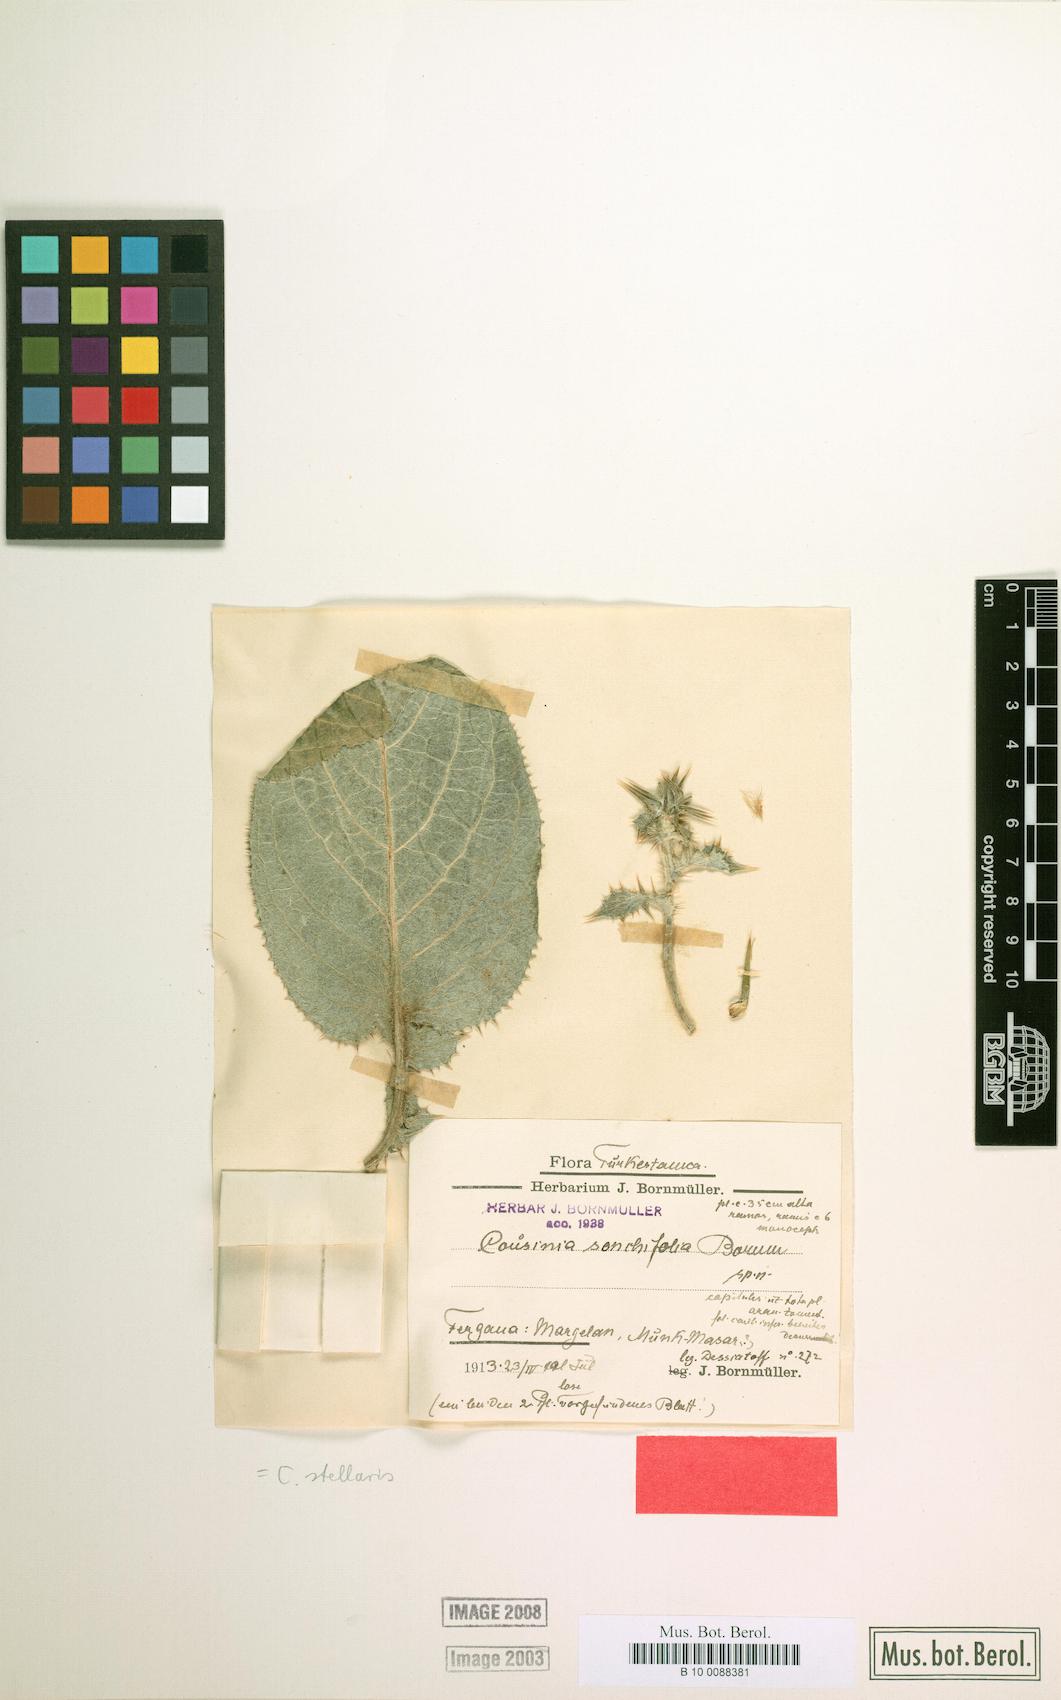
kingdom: Plantae
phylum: Tracheophyta
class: Magnoliopsida
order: Asterales
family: Asteraceae
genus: Cousinia
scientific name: Cousinia carduncelloidea
